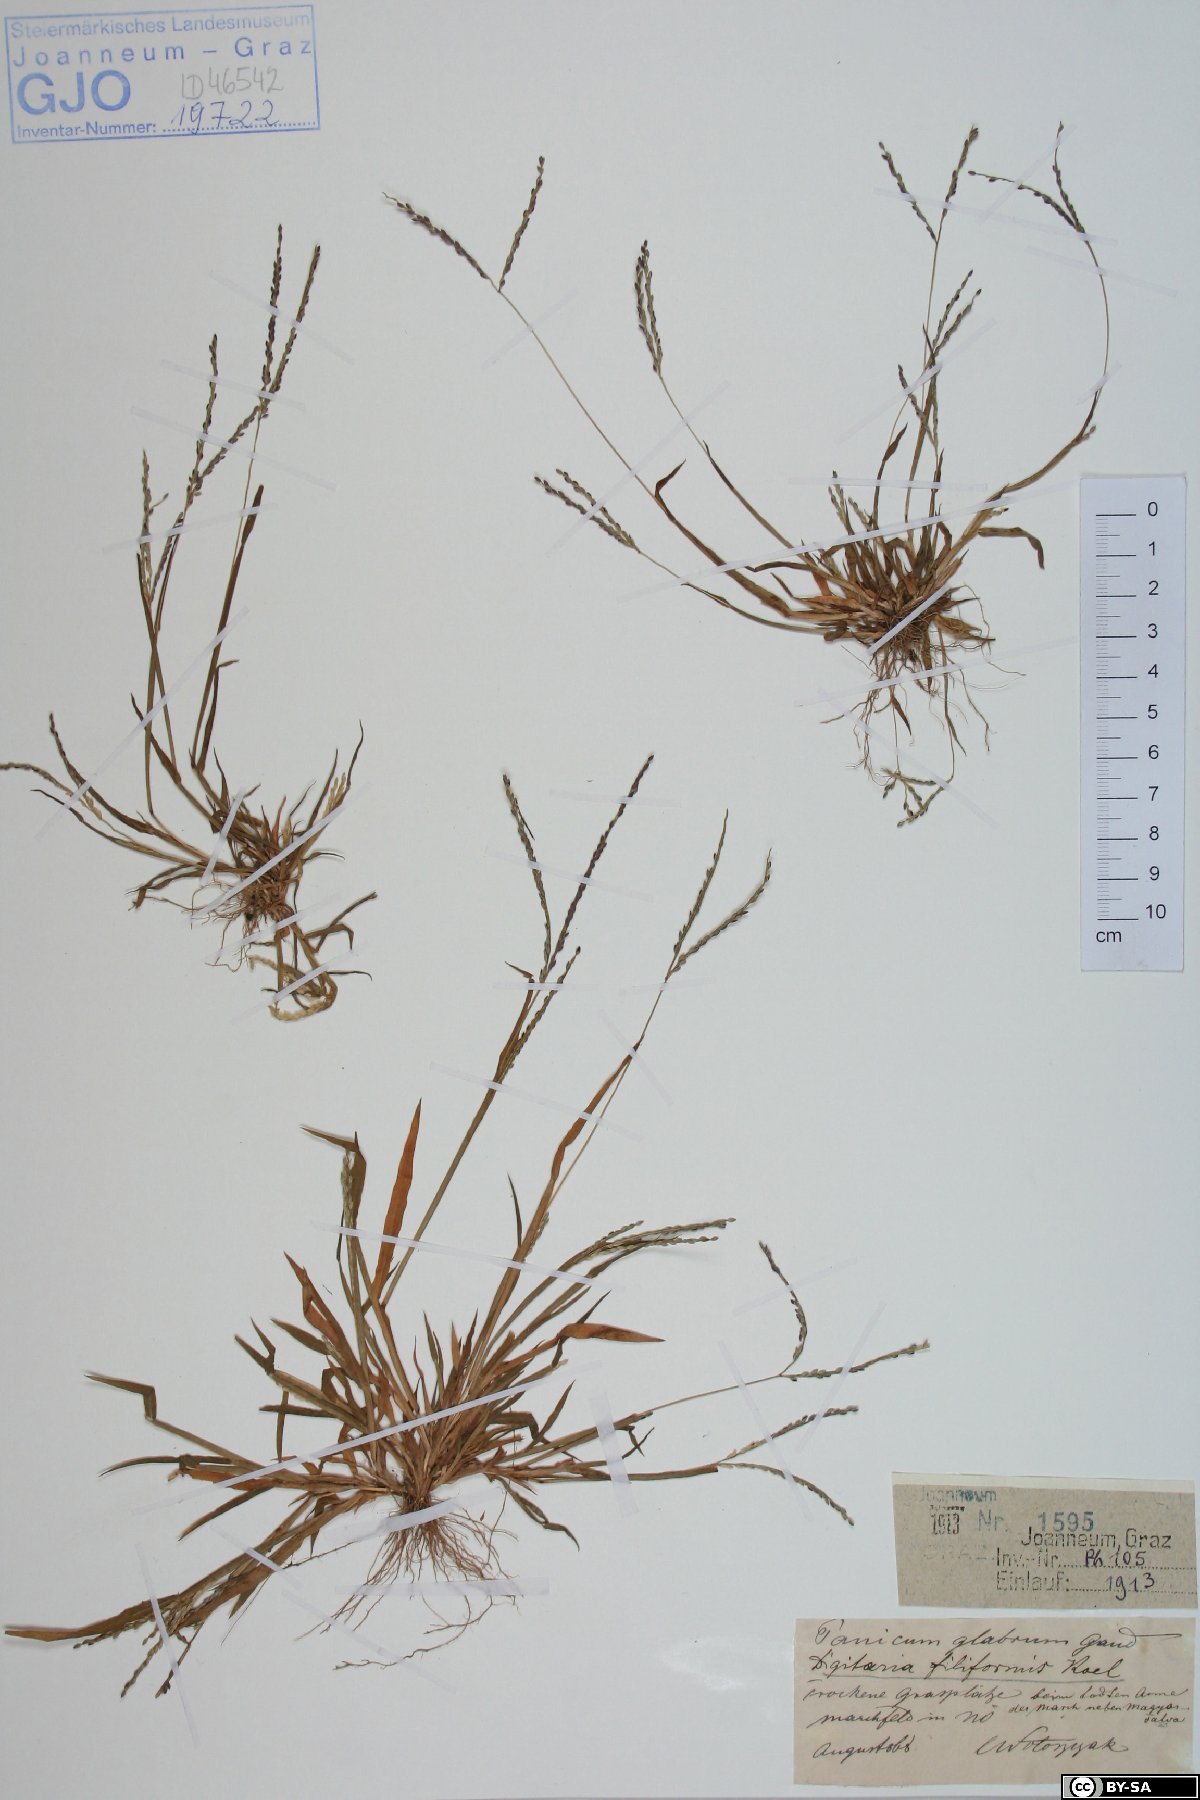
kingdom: Plantae
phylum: Tracheophyta
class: Liliopsida
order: Poales
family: Poaceae
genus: Digitaria
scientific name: Digitaria filiformis
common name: Slender crabgrass
